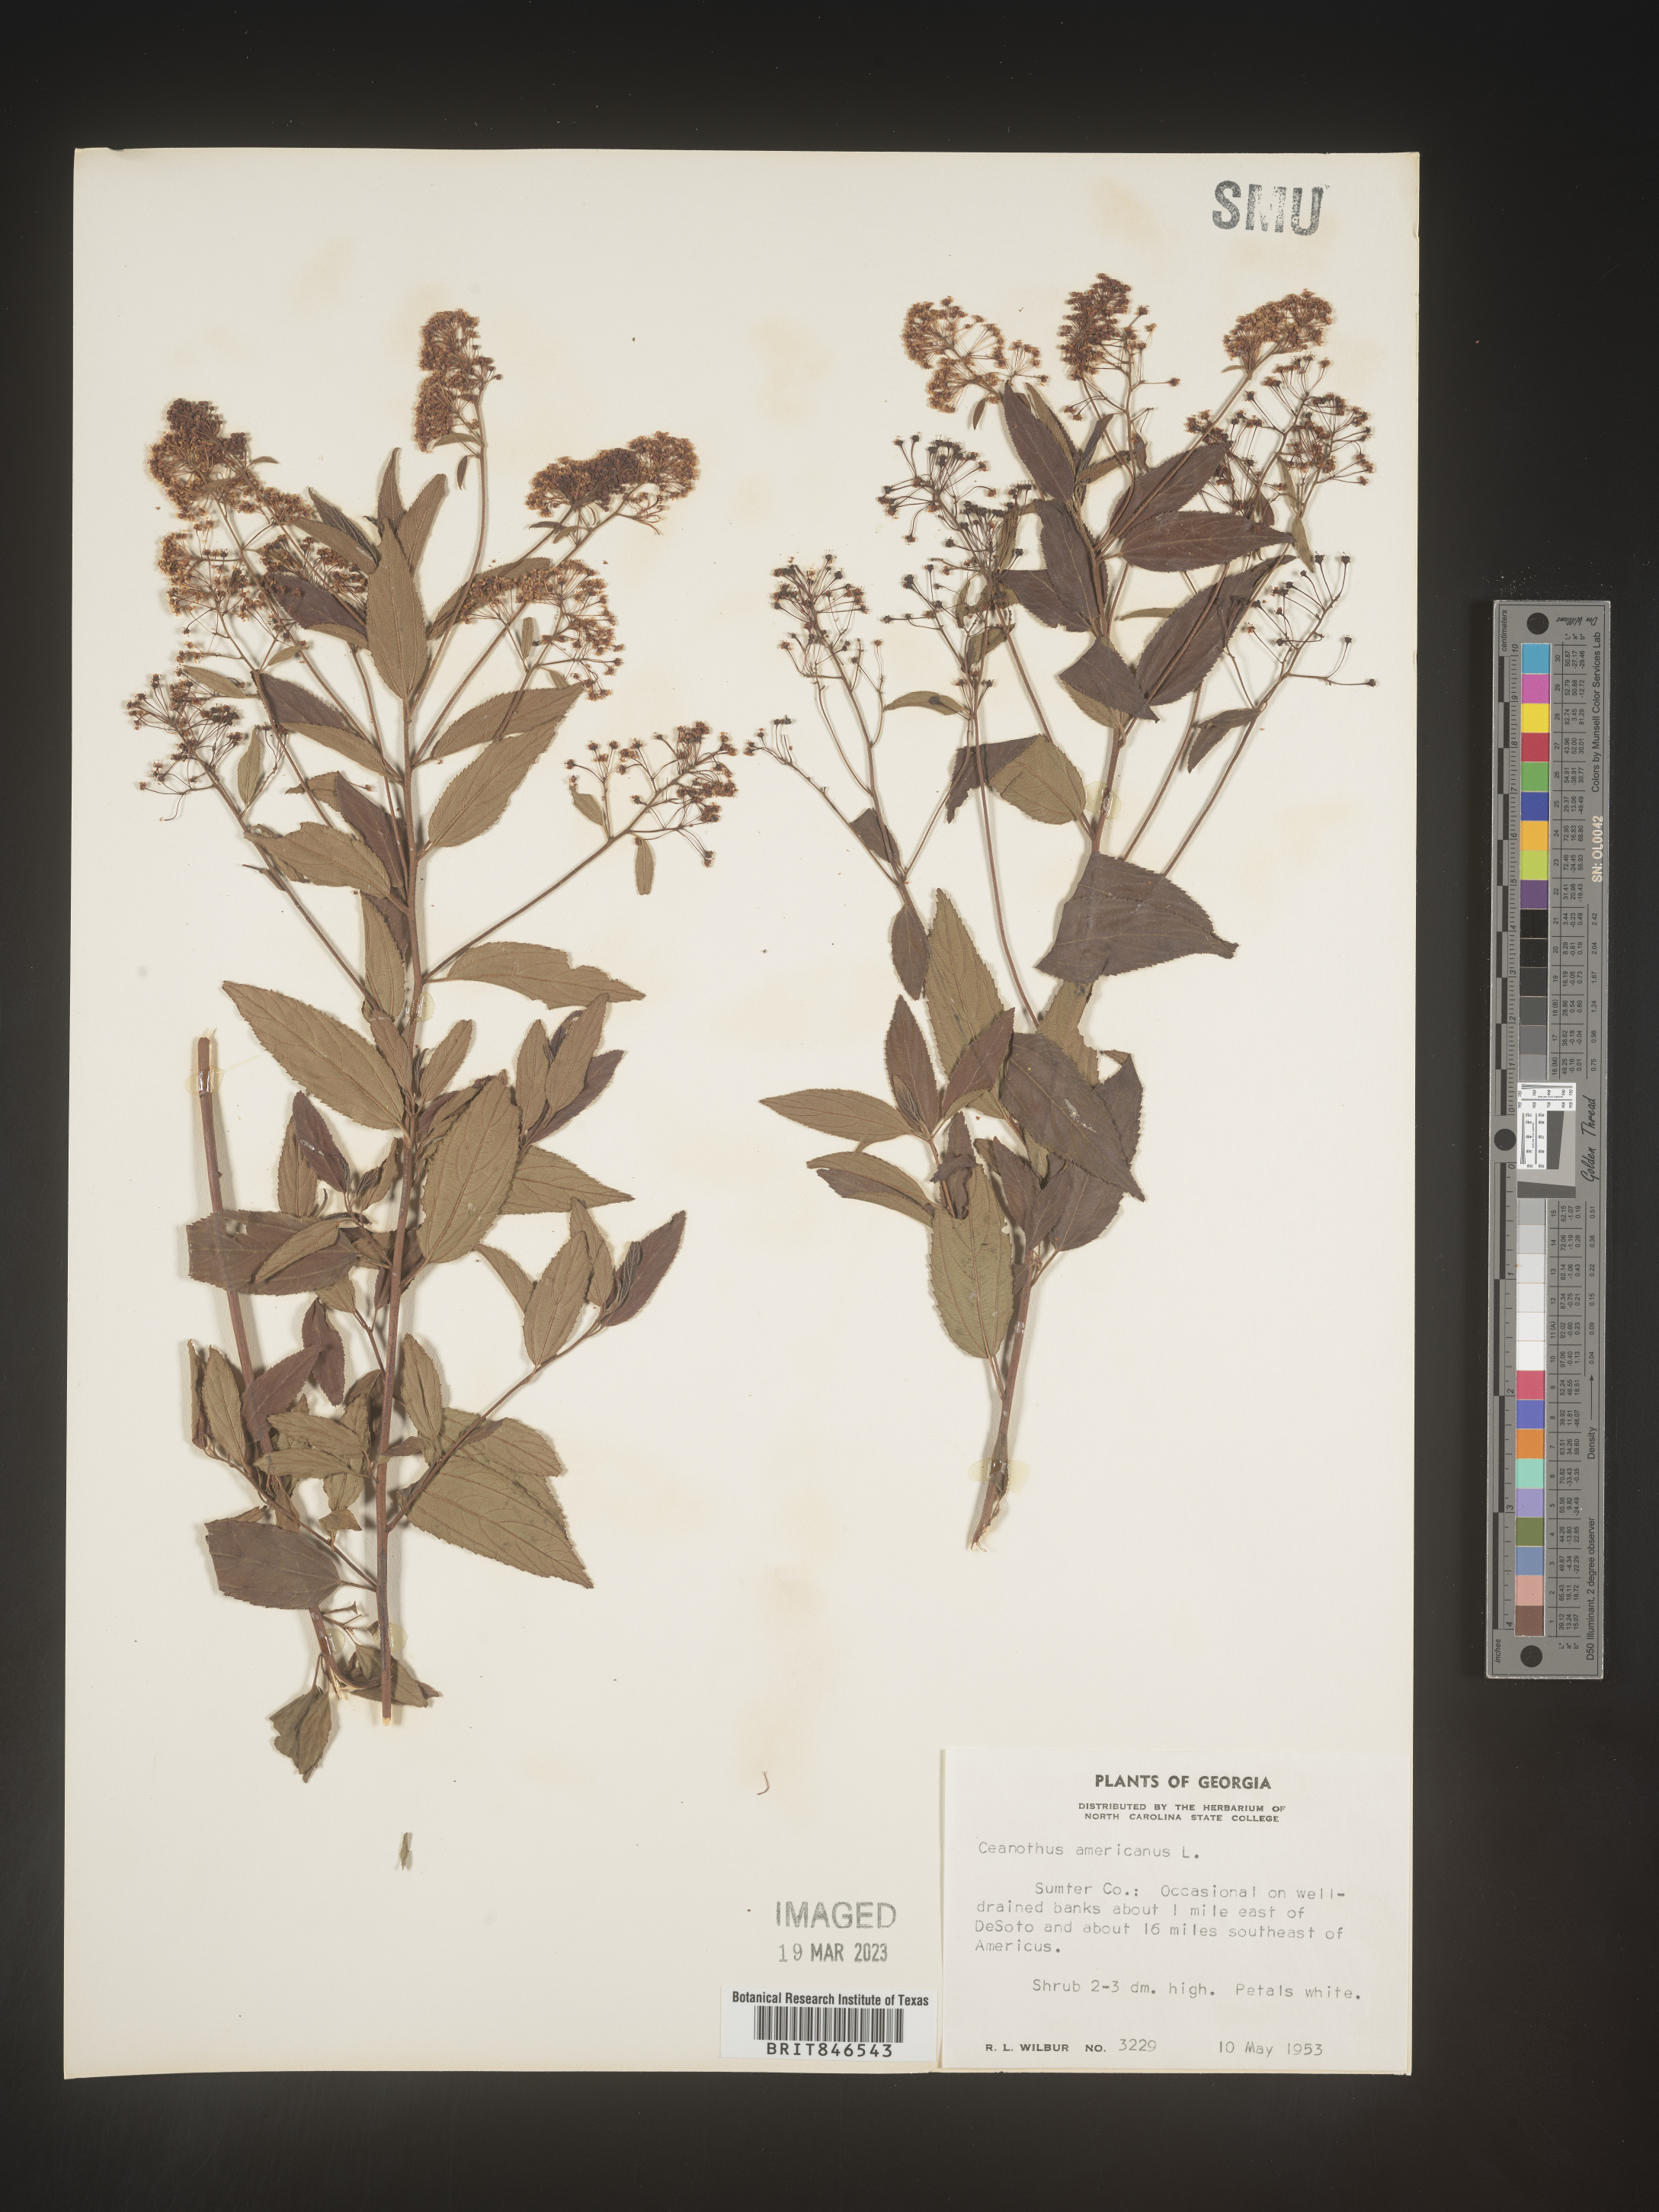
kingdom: Plantae
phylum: Tracheophyta
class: Magnoliopsida
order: Rosales
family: Rhamnaceae
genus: Ceanothus
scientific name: Ceanothus americanus
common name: Redroot
